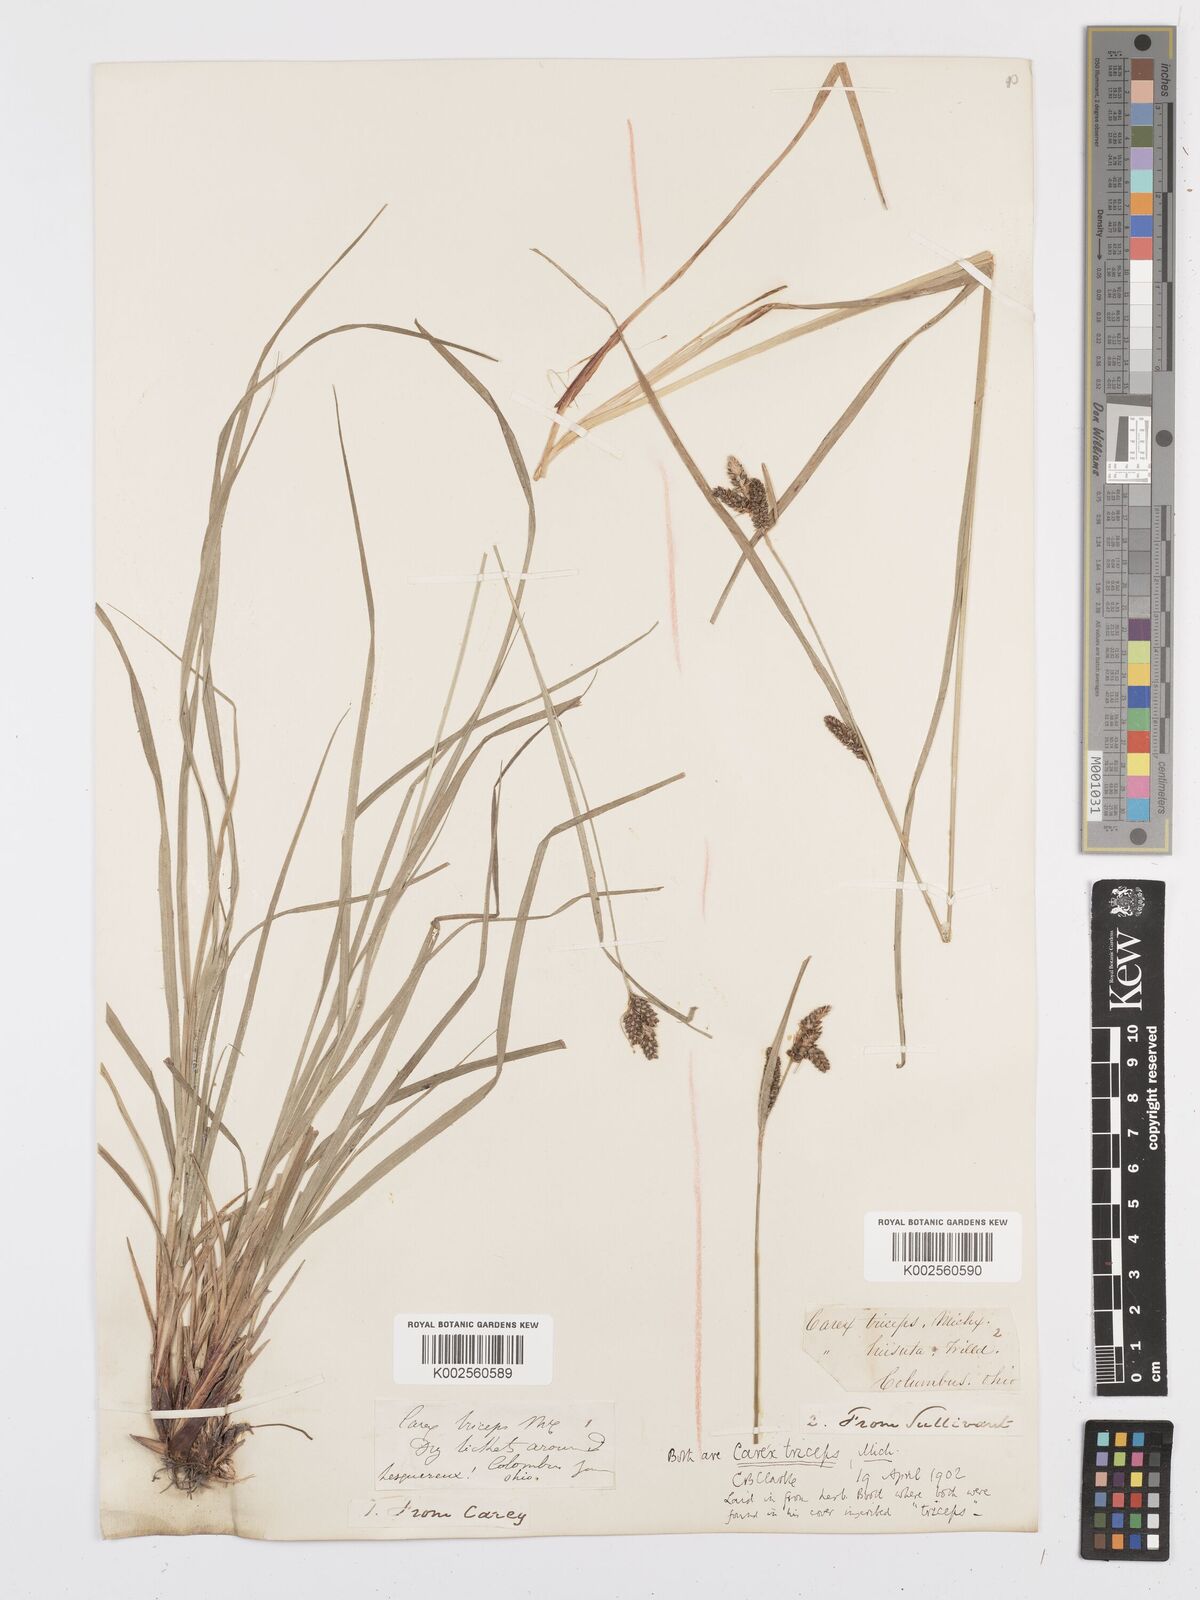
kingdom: Plantae
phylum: Tracheophyta
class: Liliopsida
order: Poales
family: Cyperaceae
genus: Carex
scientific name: Carex complanata
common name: Hirsute sedge
